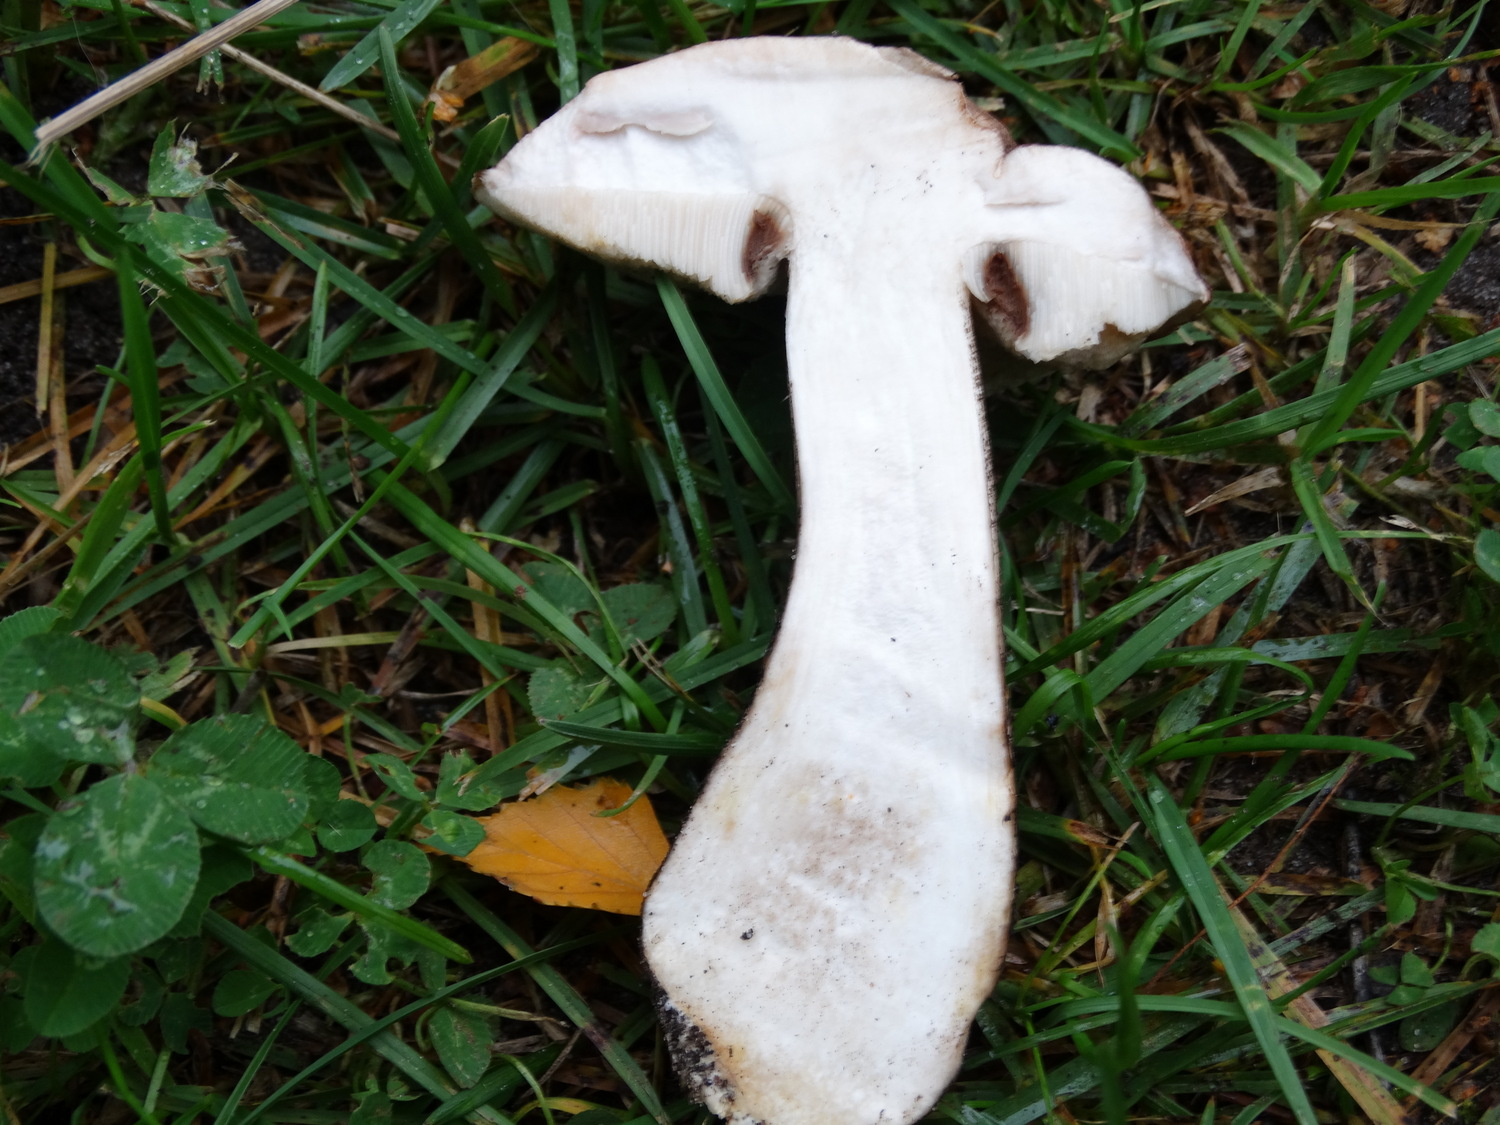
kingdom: Fungi
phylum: Basidiomycota
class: Agaricomycetes
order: Boletales
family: Boletaceae
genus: Leccinum
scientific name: Leccinum scabrum
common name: brun skælrørhat
